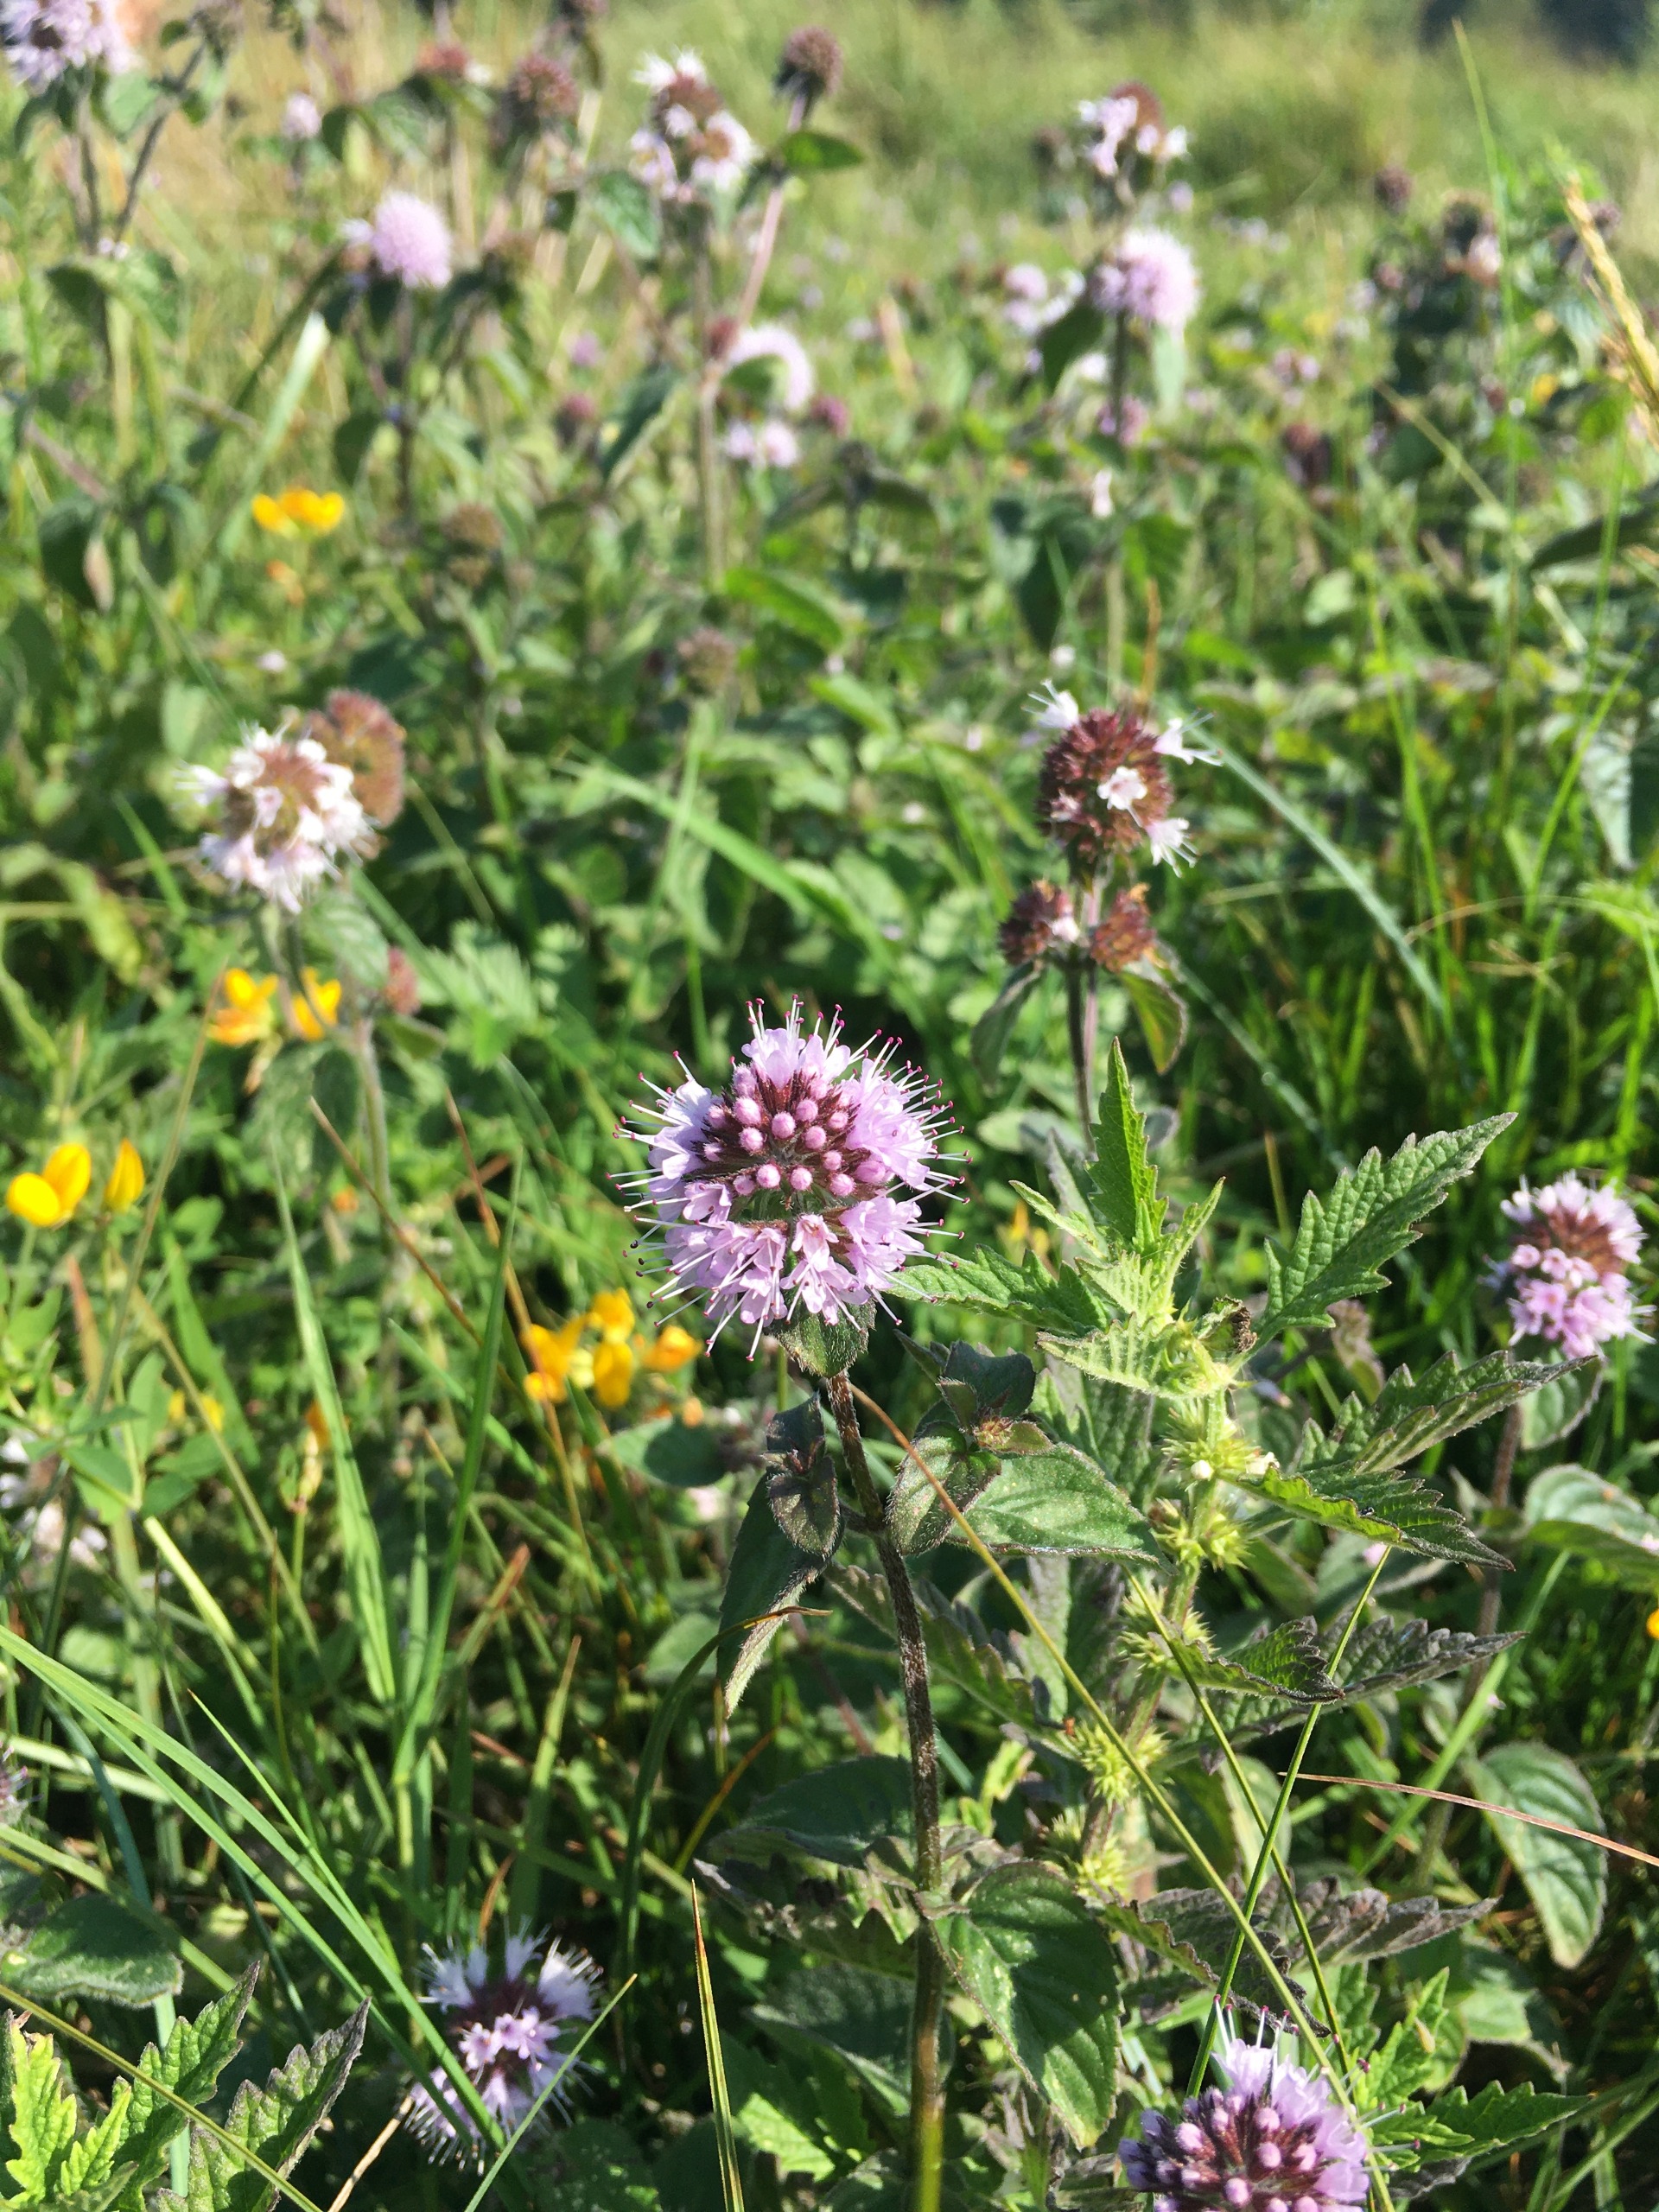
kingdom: Plantae
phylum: Tracheophyta
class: Magnoliopsida
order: Lamiales
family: Lamiaceae
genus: Mentha
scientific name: Mentha aquatica
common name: Vand-mynte
